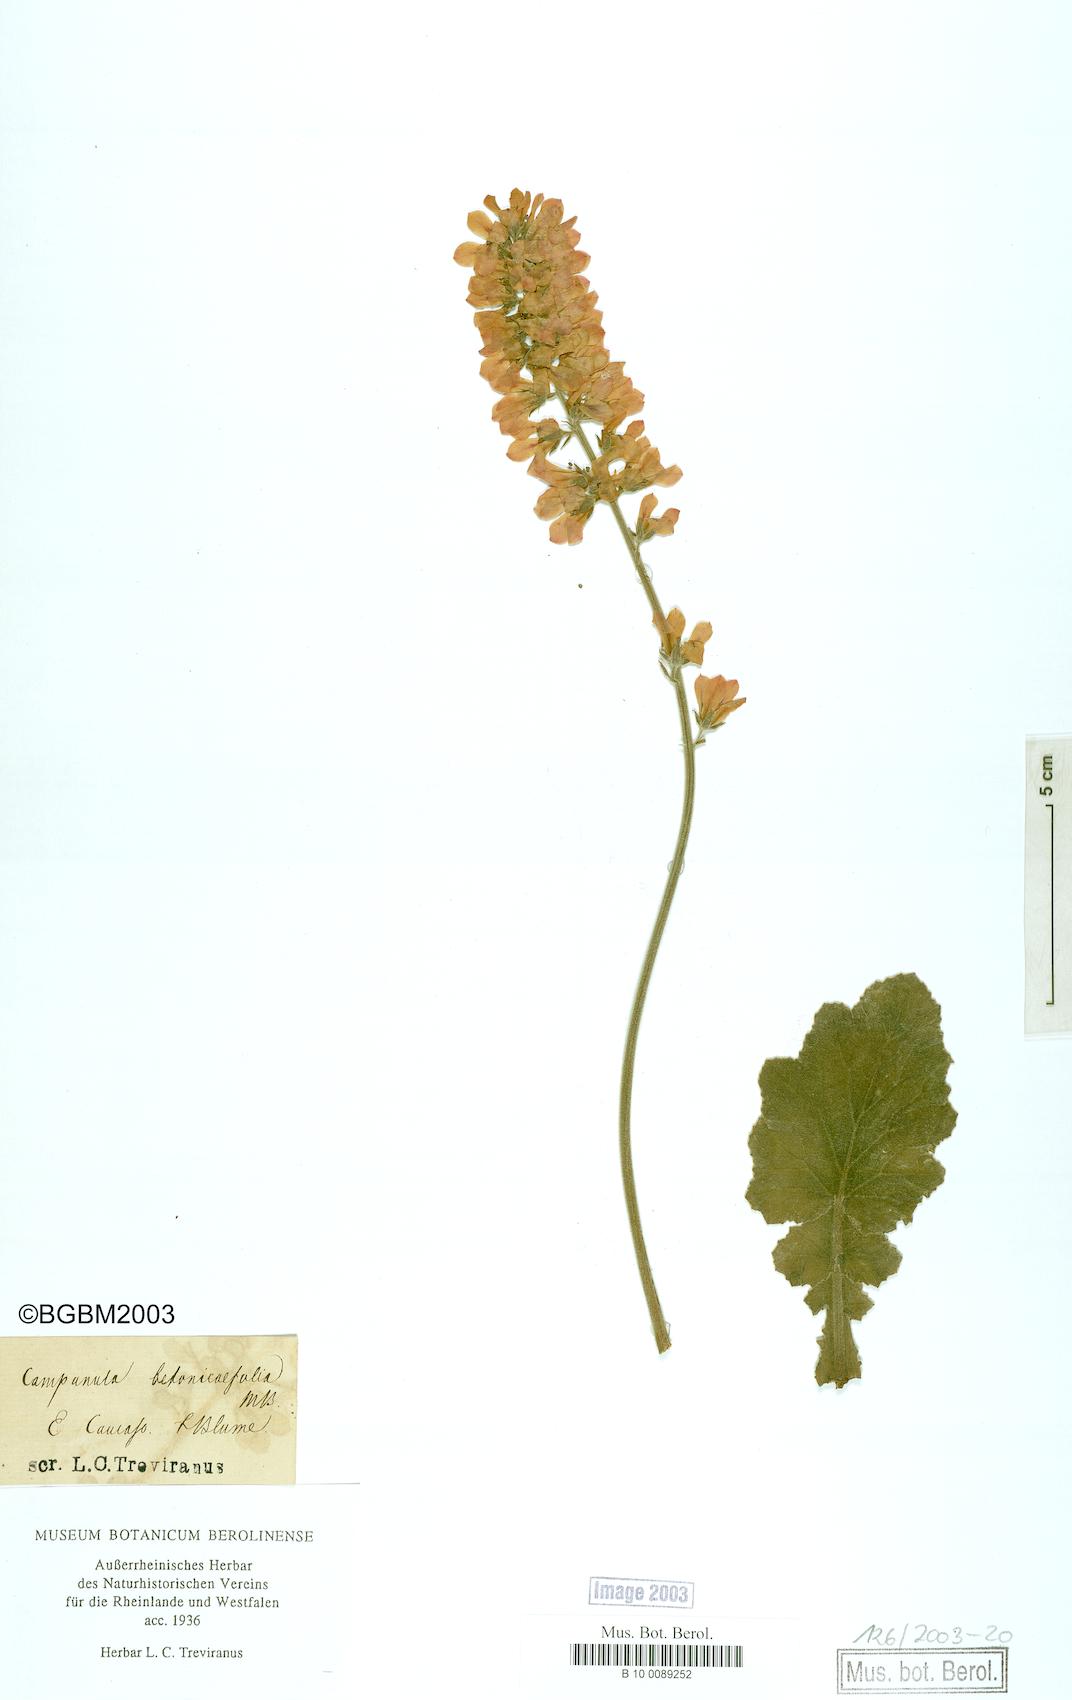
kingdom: Plantae
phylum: Tracheophyta
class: Magnoliopsida
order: Asterales
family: Campanulaceae
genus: Campanula
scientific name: Campanula betonicifolia
